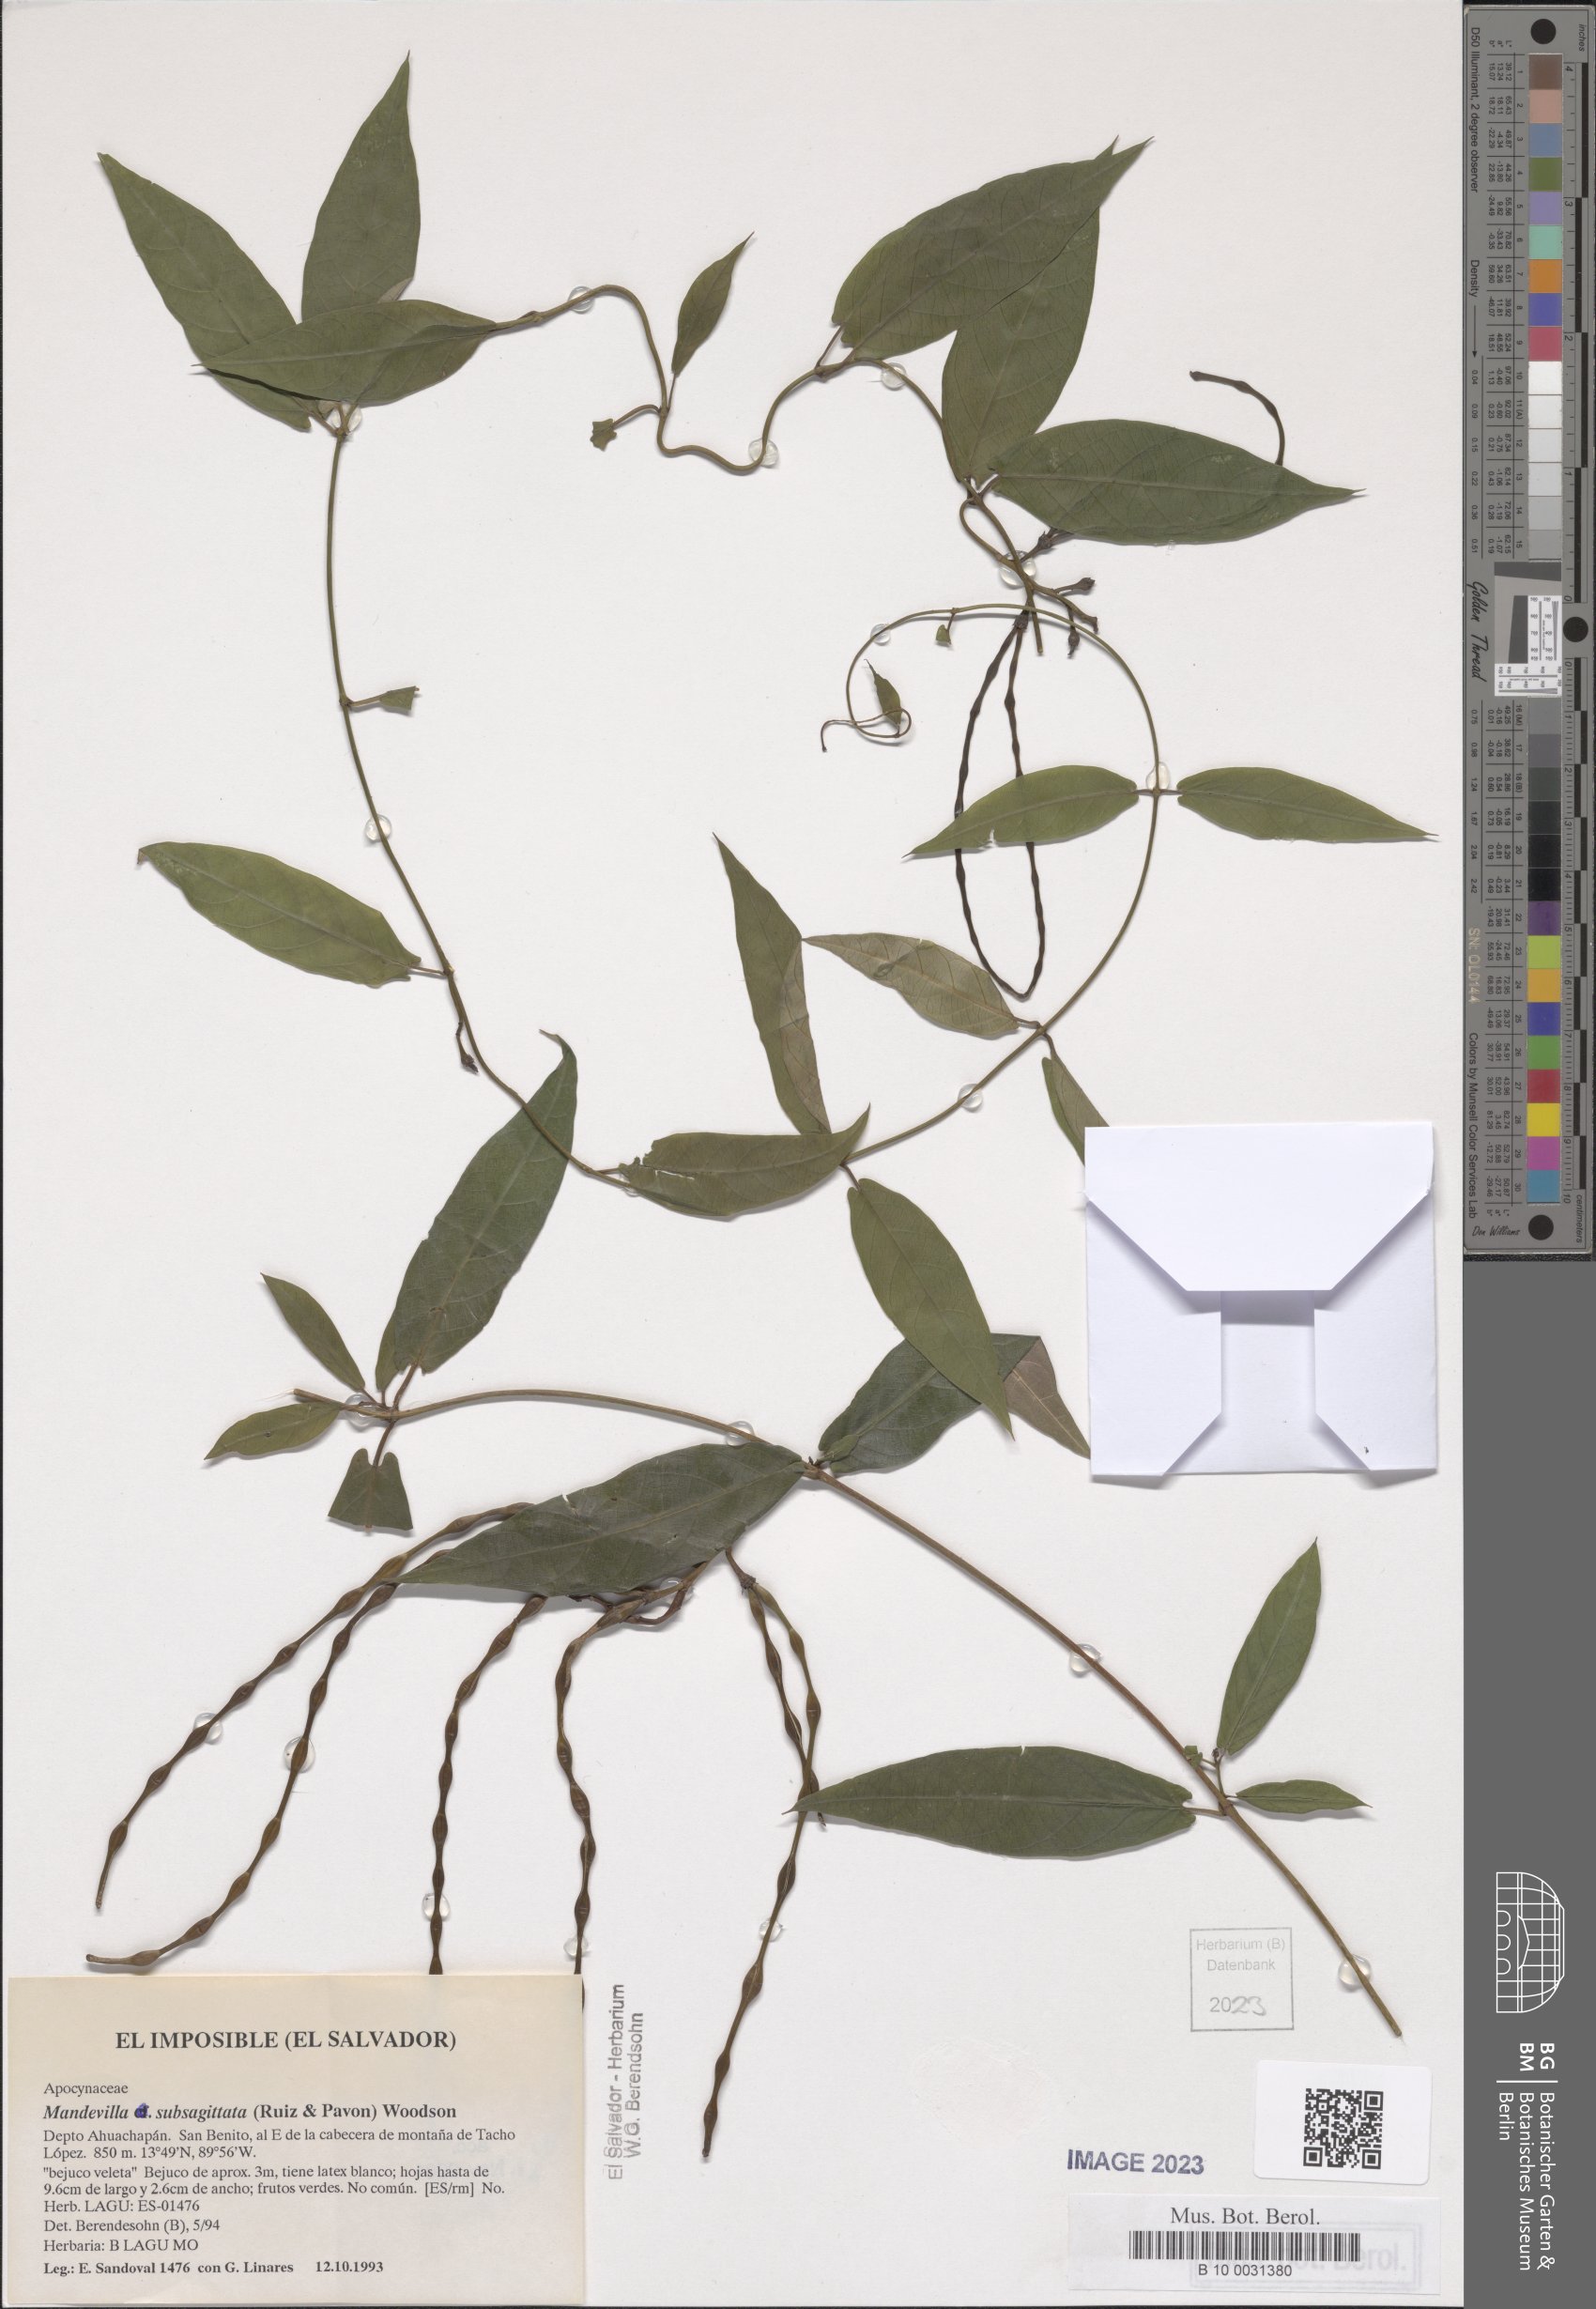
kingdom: Plantae
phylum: Tracheophyta
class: Magnoliopsida
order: Gentianales
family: Apocynaceae
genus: Mandevilla
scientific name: Mandevilla subsagittata
